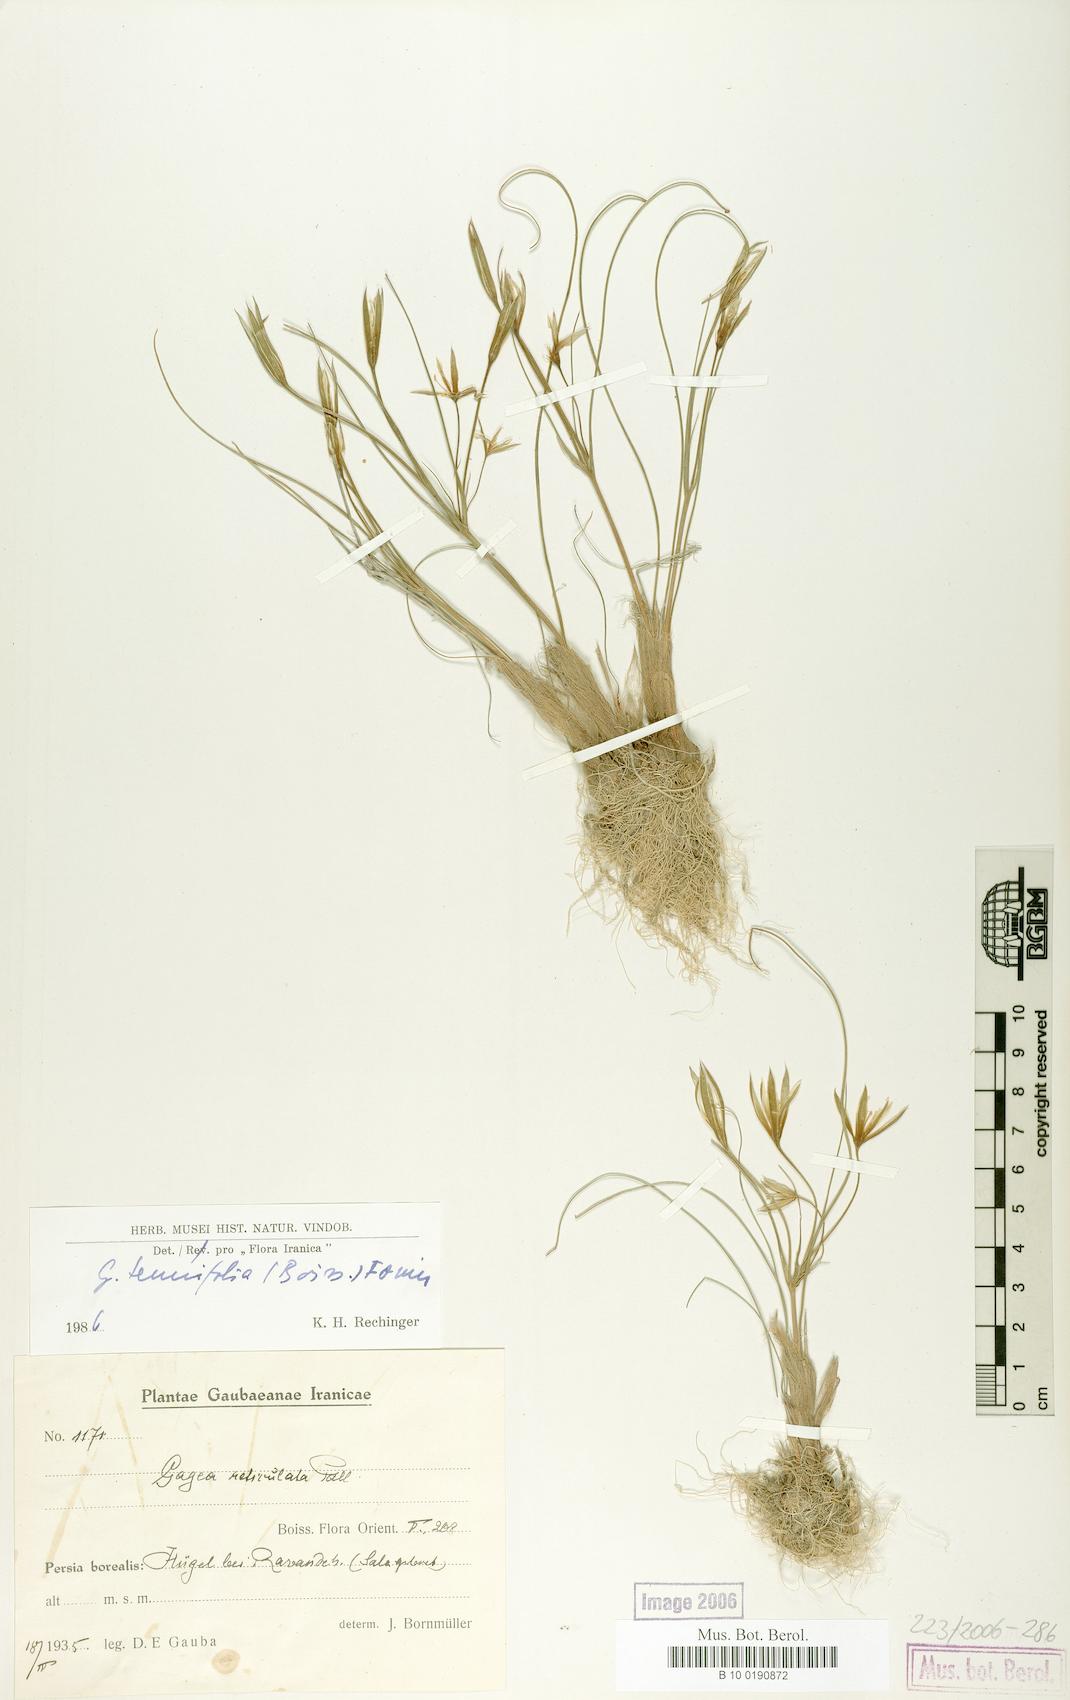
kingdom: Plantae
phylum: Tracheophyta
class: Liliopsida
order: Liliales
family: Liliaceae
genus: Gagea
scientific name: Gagea reticulata
